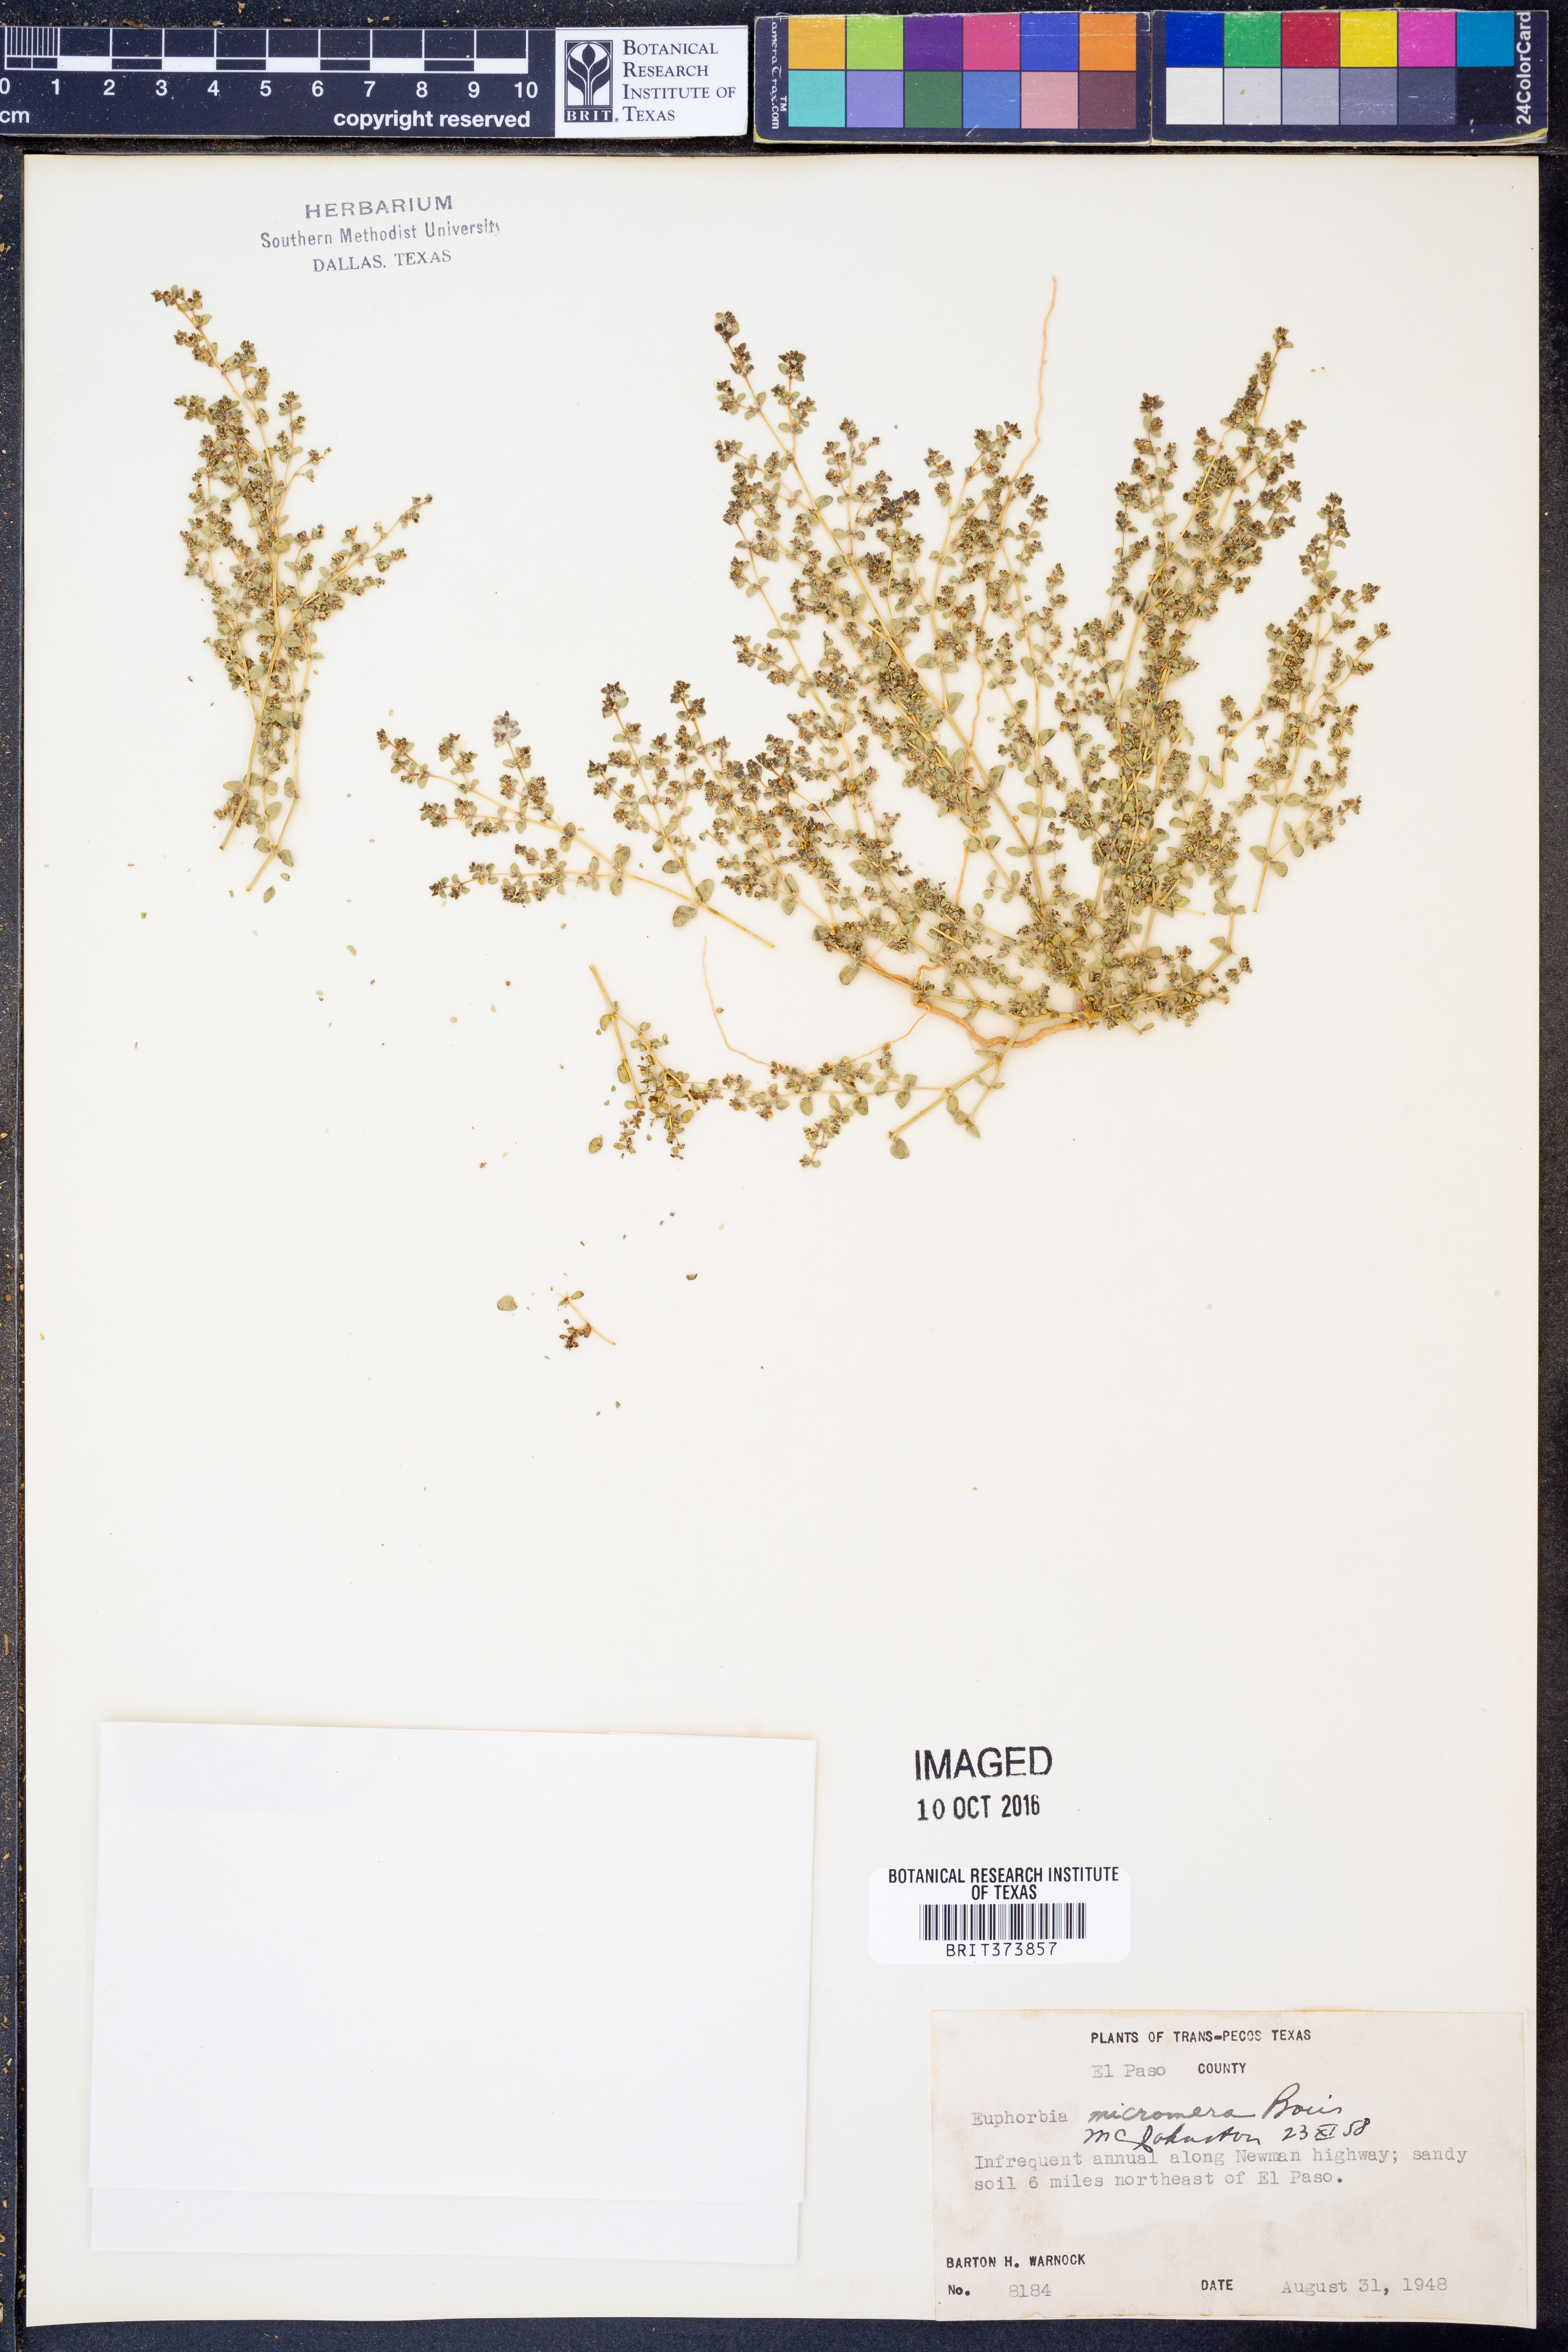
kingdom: Plantae
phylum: Tracheophyta
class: Magnoliopsida
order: Malpighiales
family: Euphorbiaceae
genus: Euphorbia
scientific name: Euphorbia micromera
